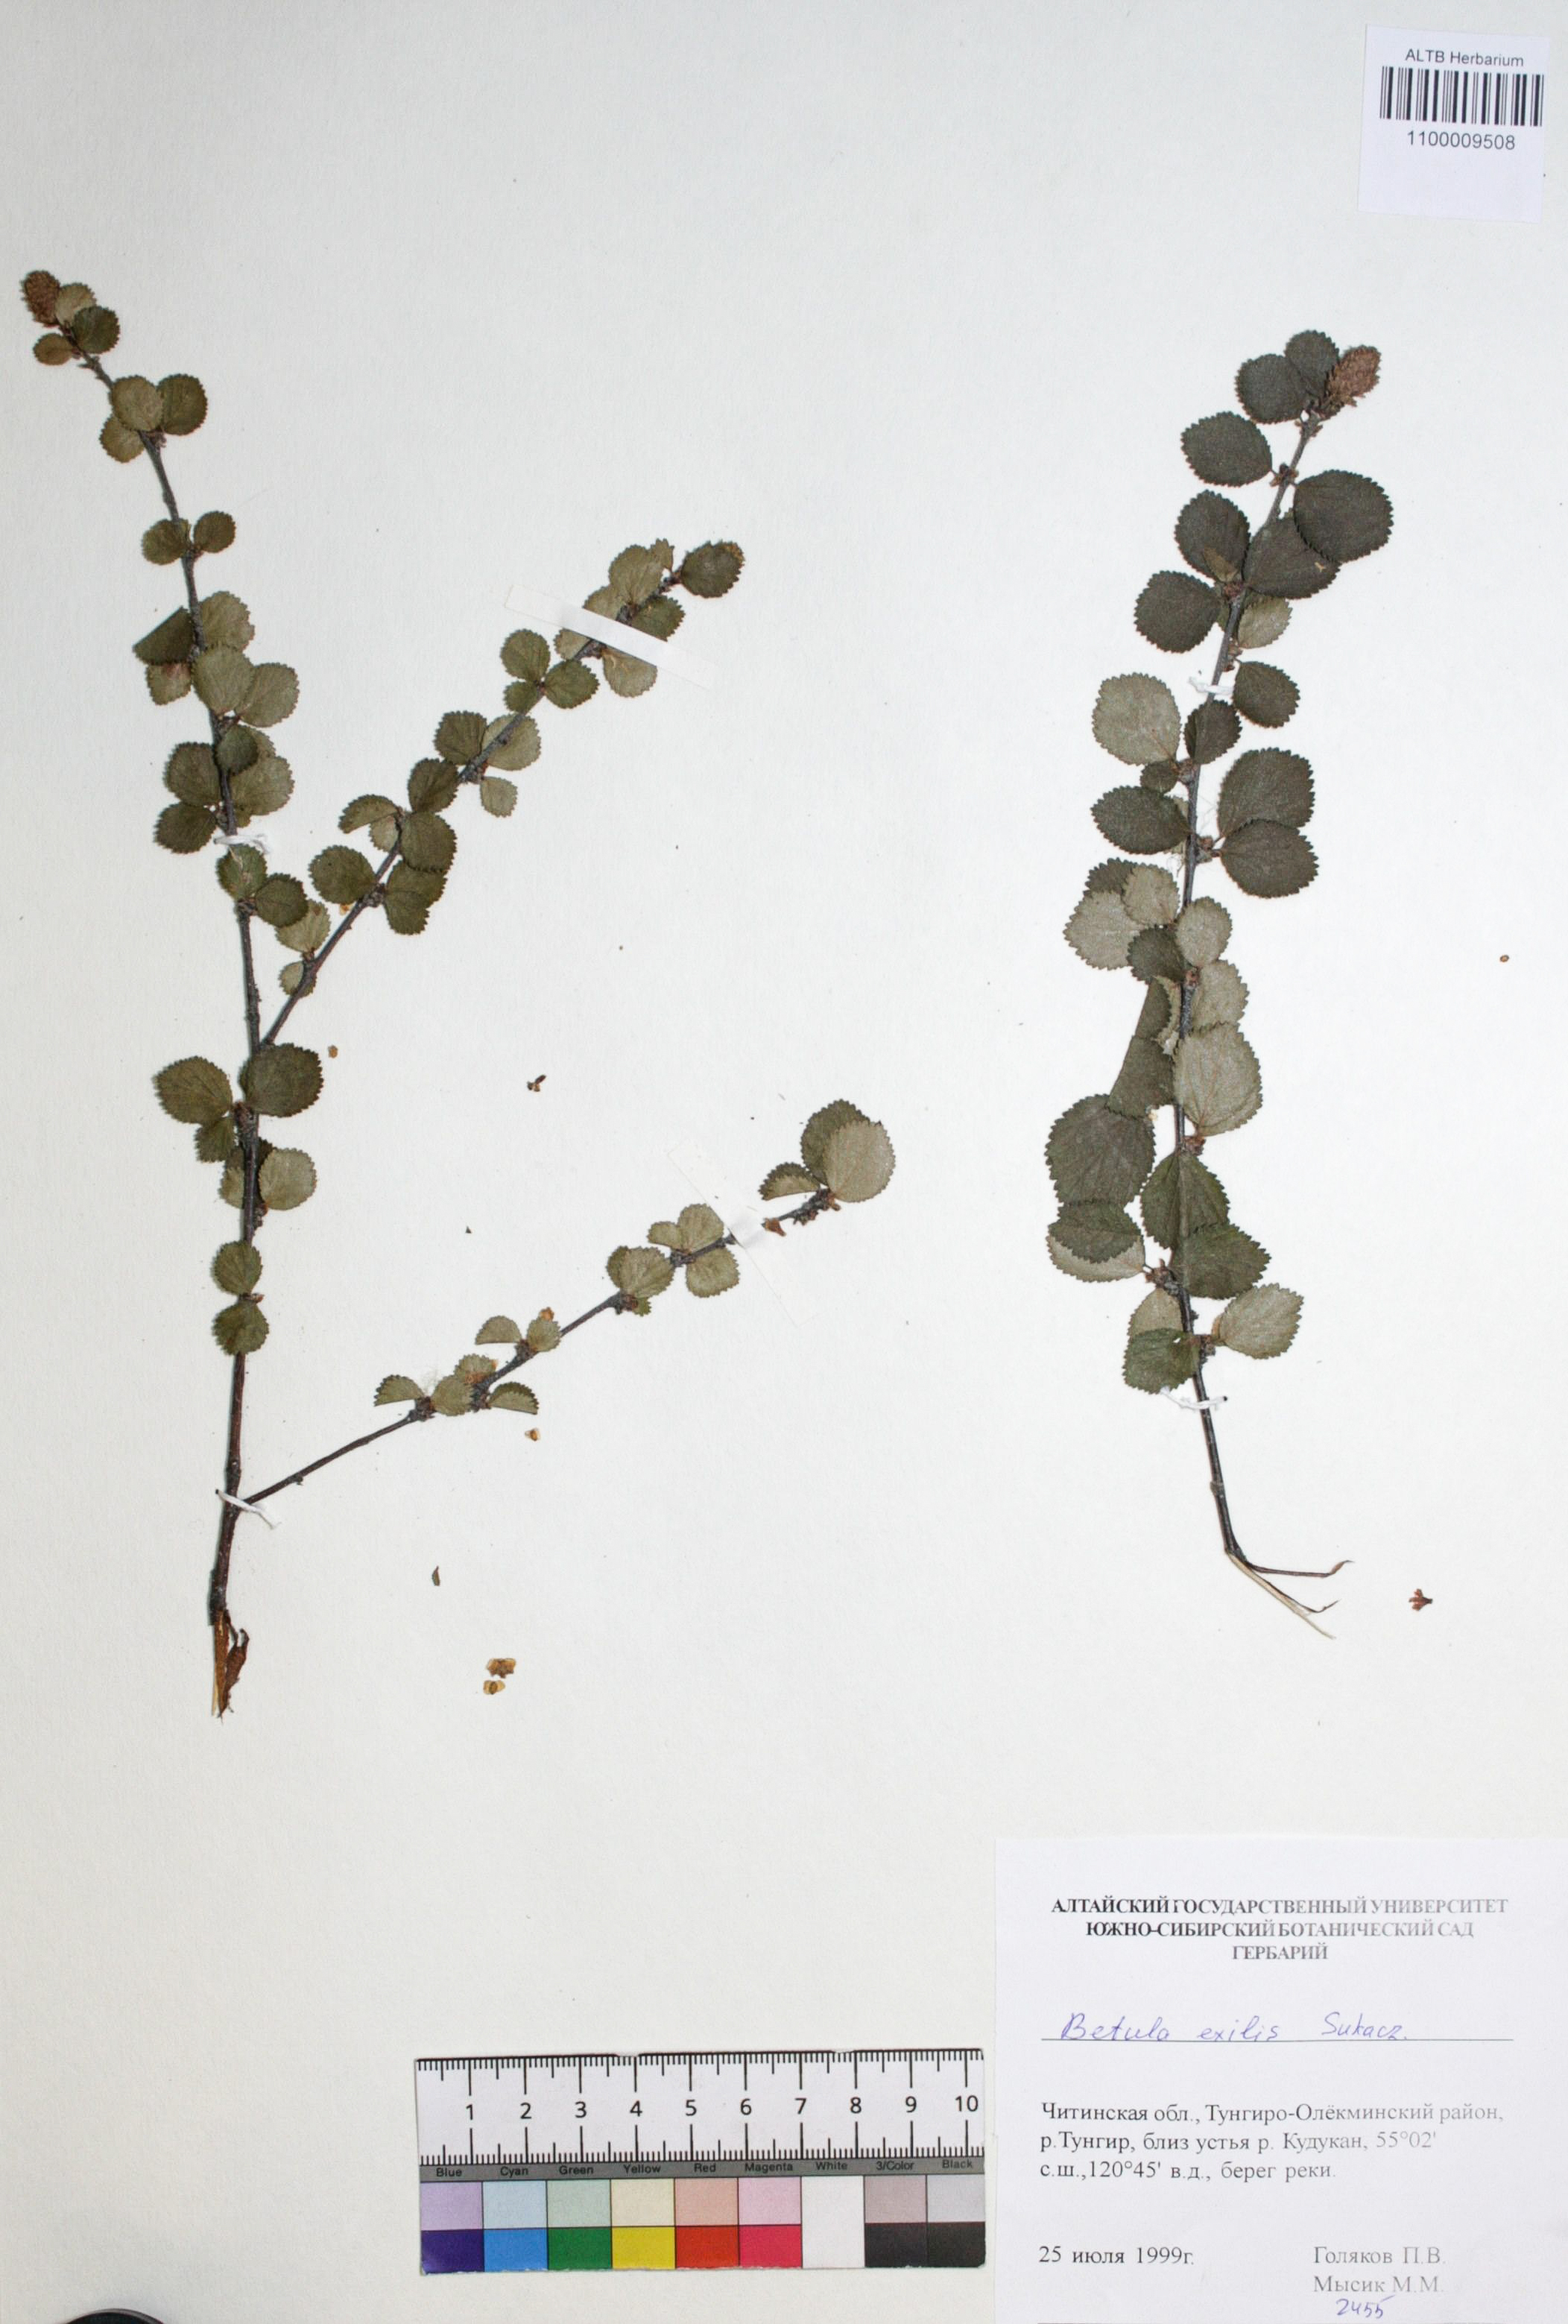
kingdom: Plantae
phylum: Tracheophyta
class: Magnoliopsida
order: Fagales
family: Betulaceae
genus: Betula
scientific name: Betula glandulosa
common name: Dwarf birch
